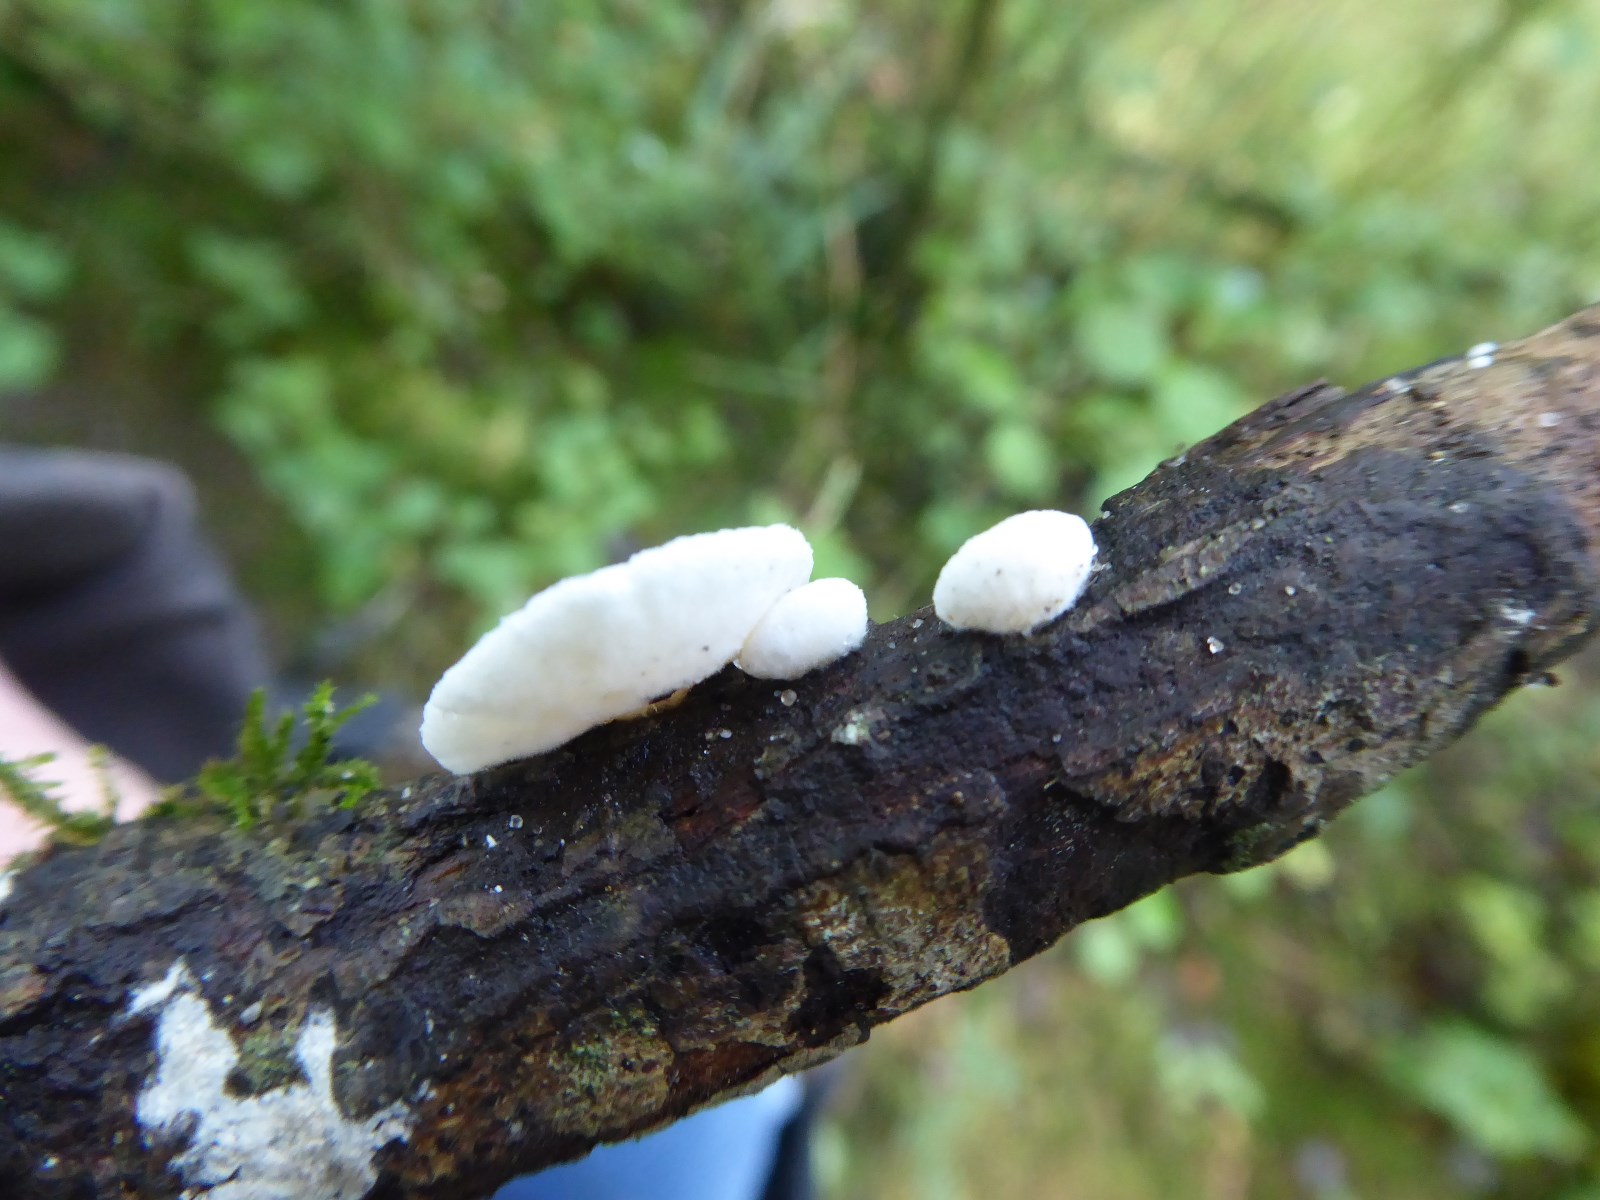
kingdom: Fungi
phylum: Basidiomycota
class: Agaricomycetes
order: Agaricales
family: Crepidotaceae
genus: Crepidotus
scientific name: Crepidotus
